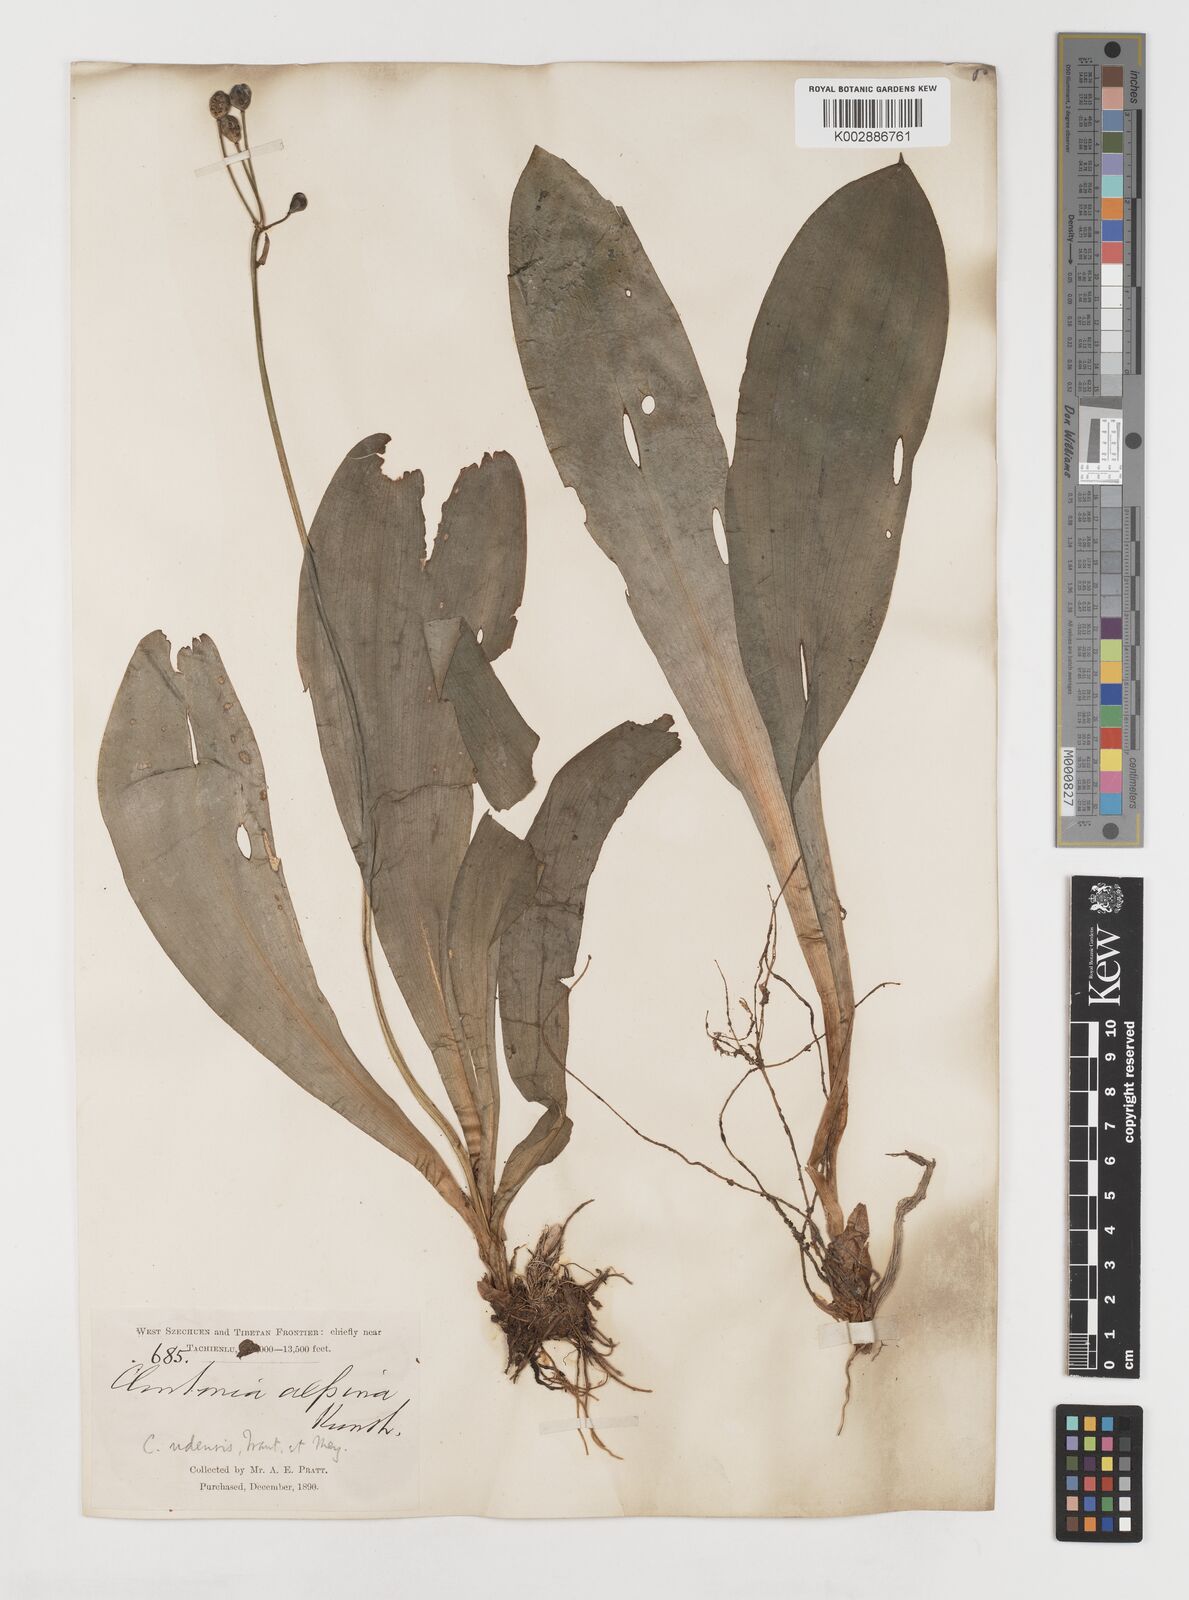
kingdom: Plantae
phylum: Tracheophyta
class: Liliopsida
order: Liliales
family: Liliaceae
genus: Clintonia
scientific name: Clintonia udensis
